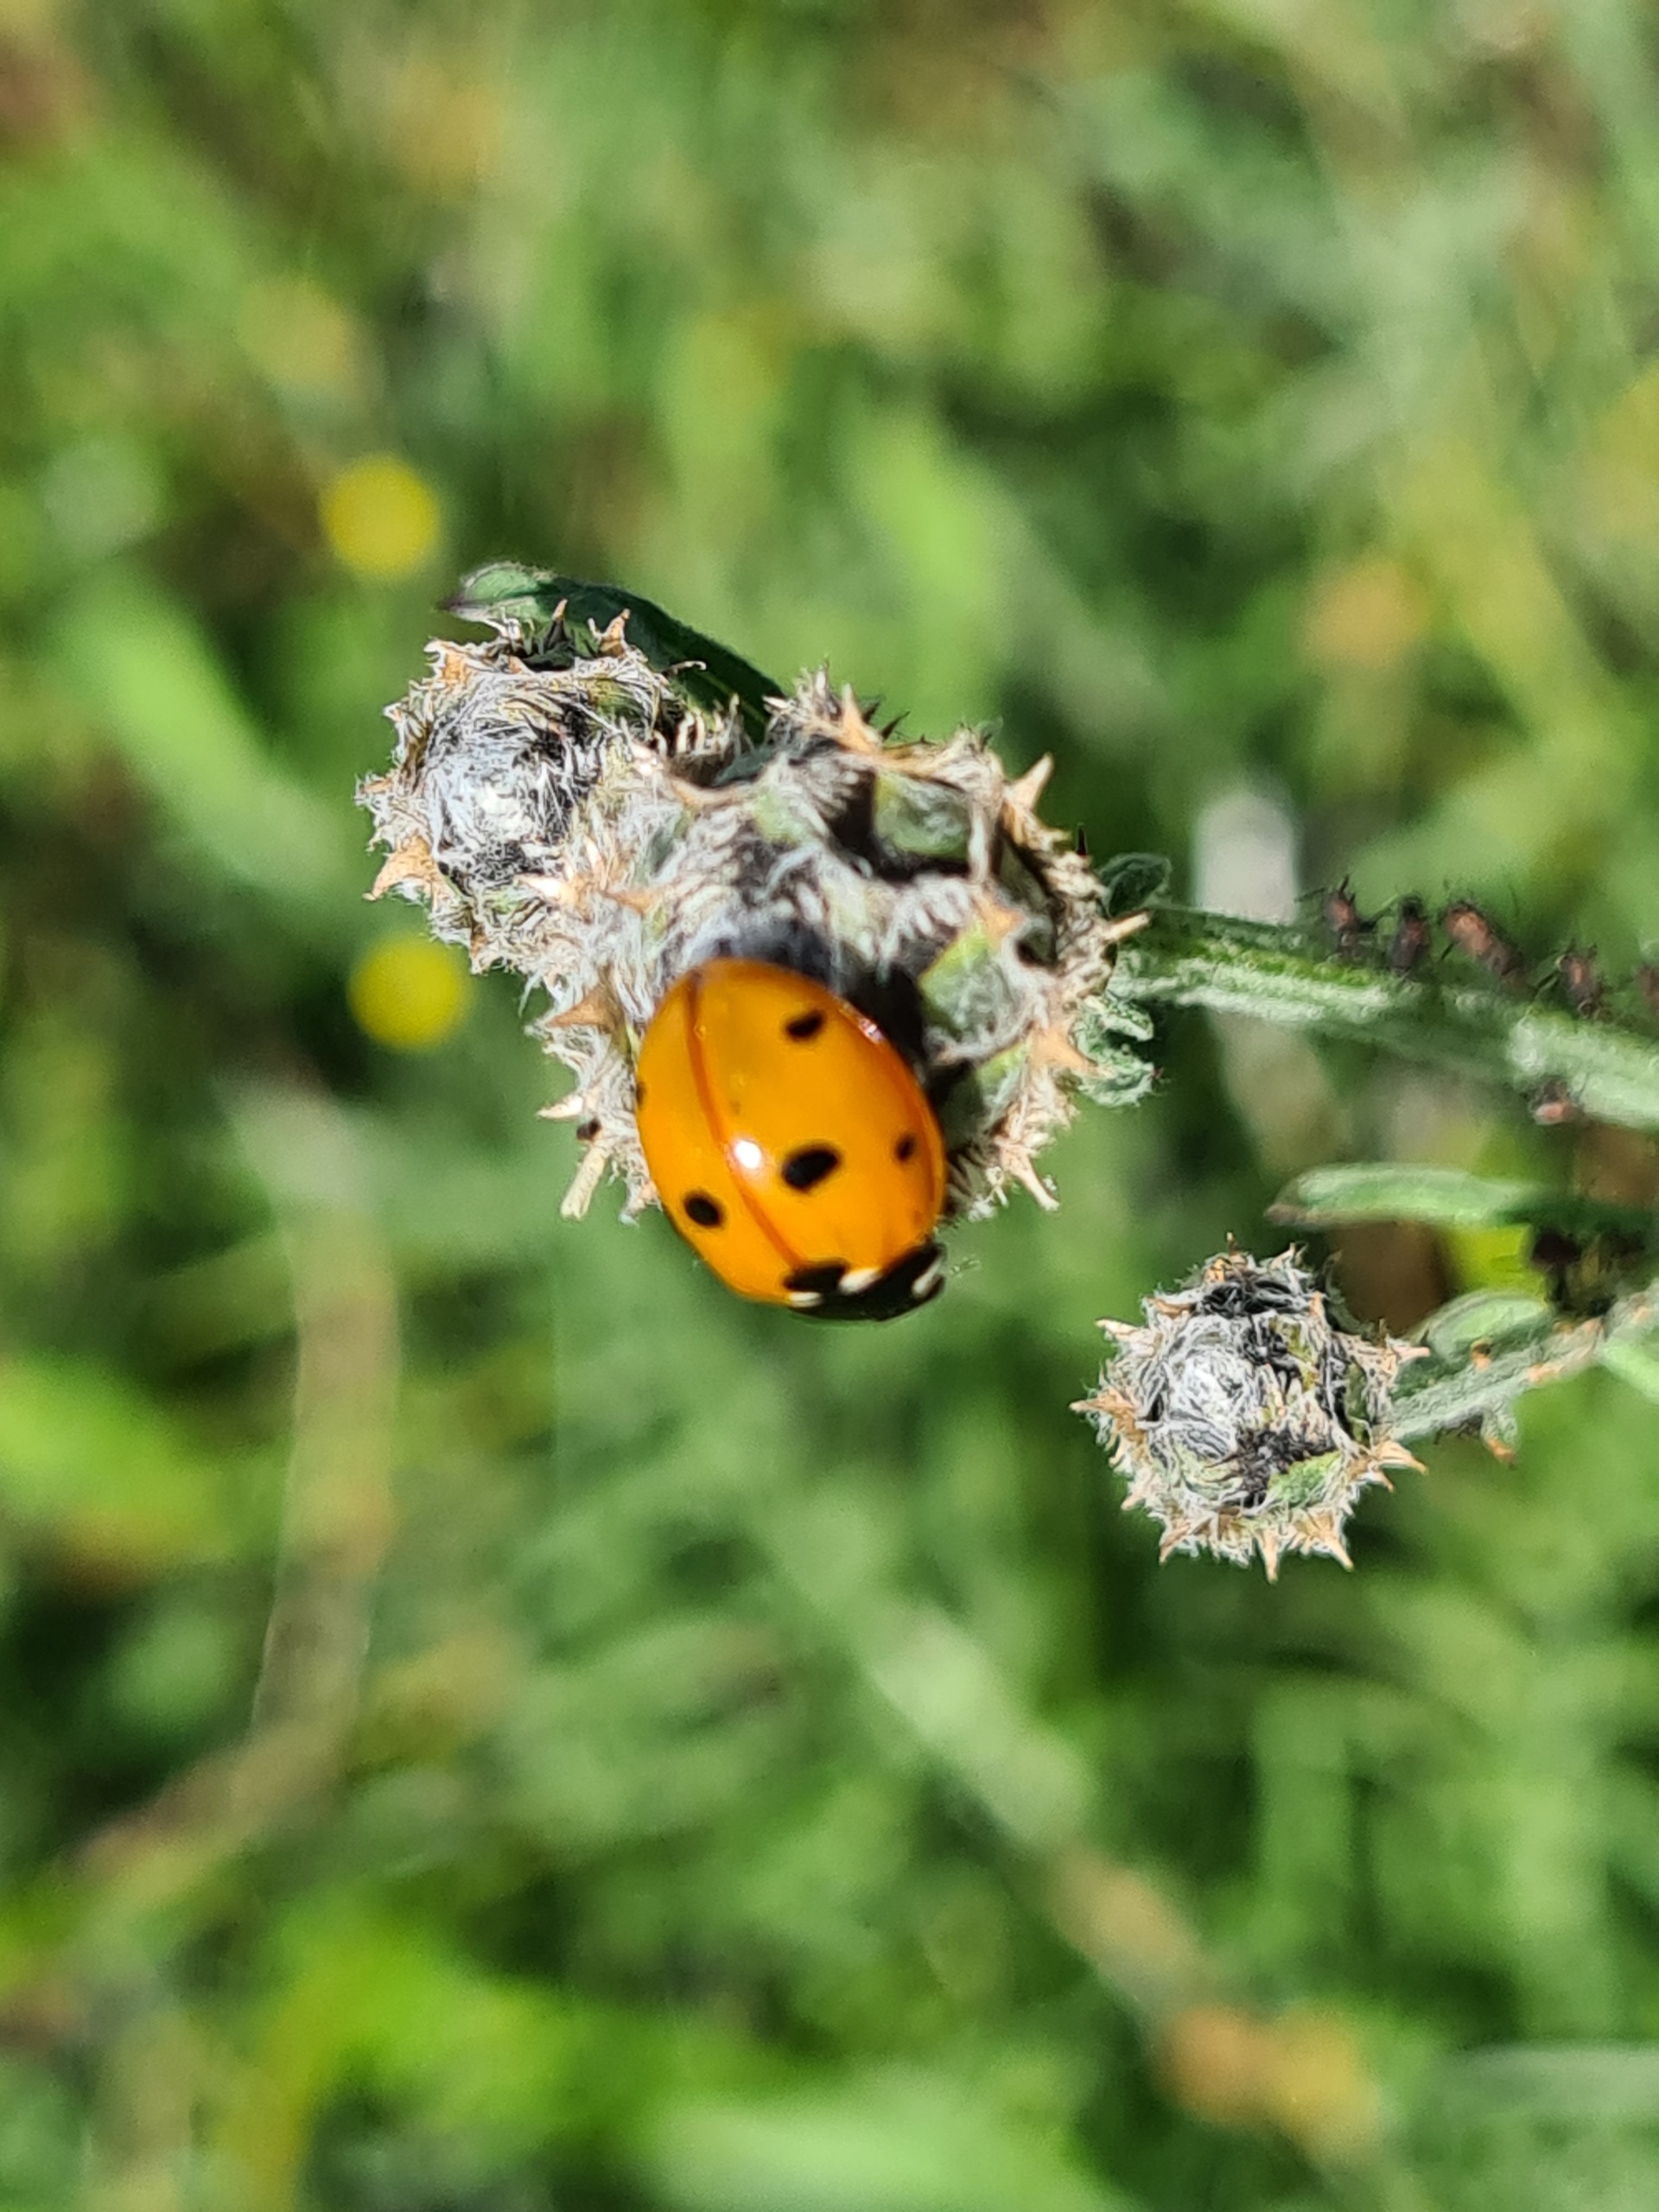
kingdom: Animalia
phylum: Arthropoda
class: Insecta
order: Coleoptera
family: Coccinellidae
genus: Coccinella
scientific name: Coccinella septempunctata
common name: Syvplettet mariehøne
